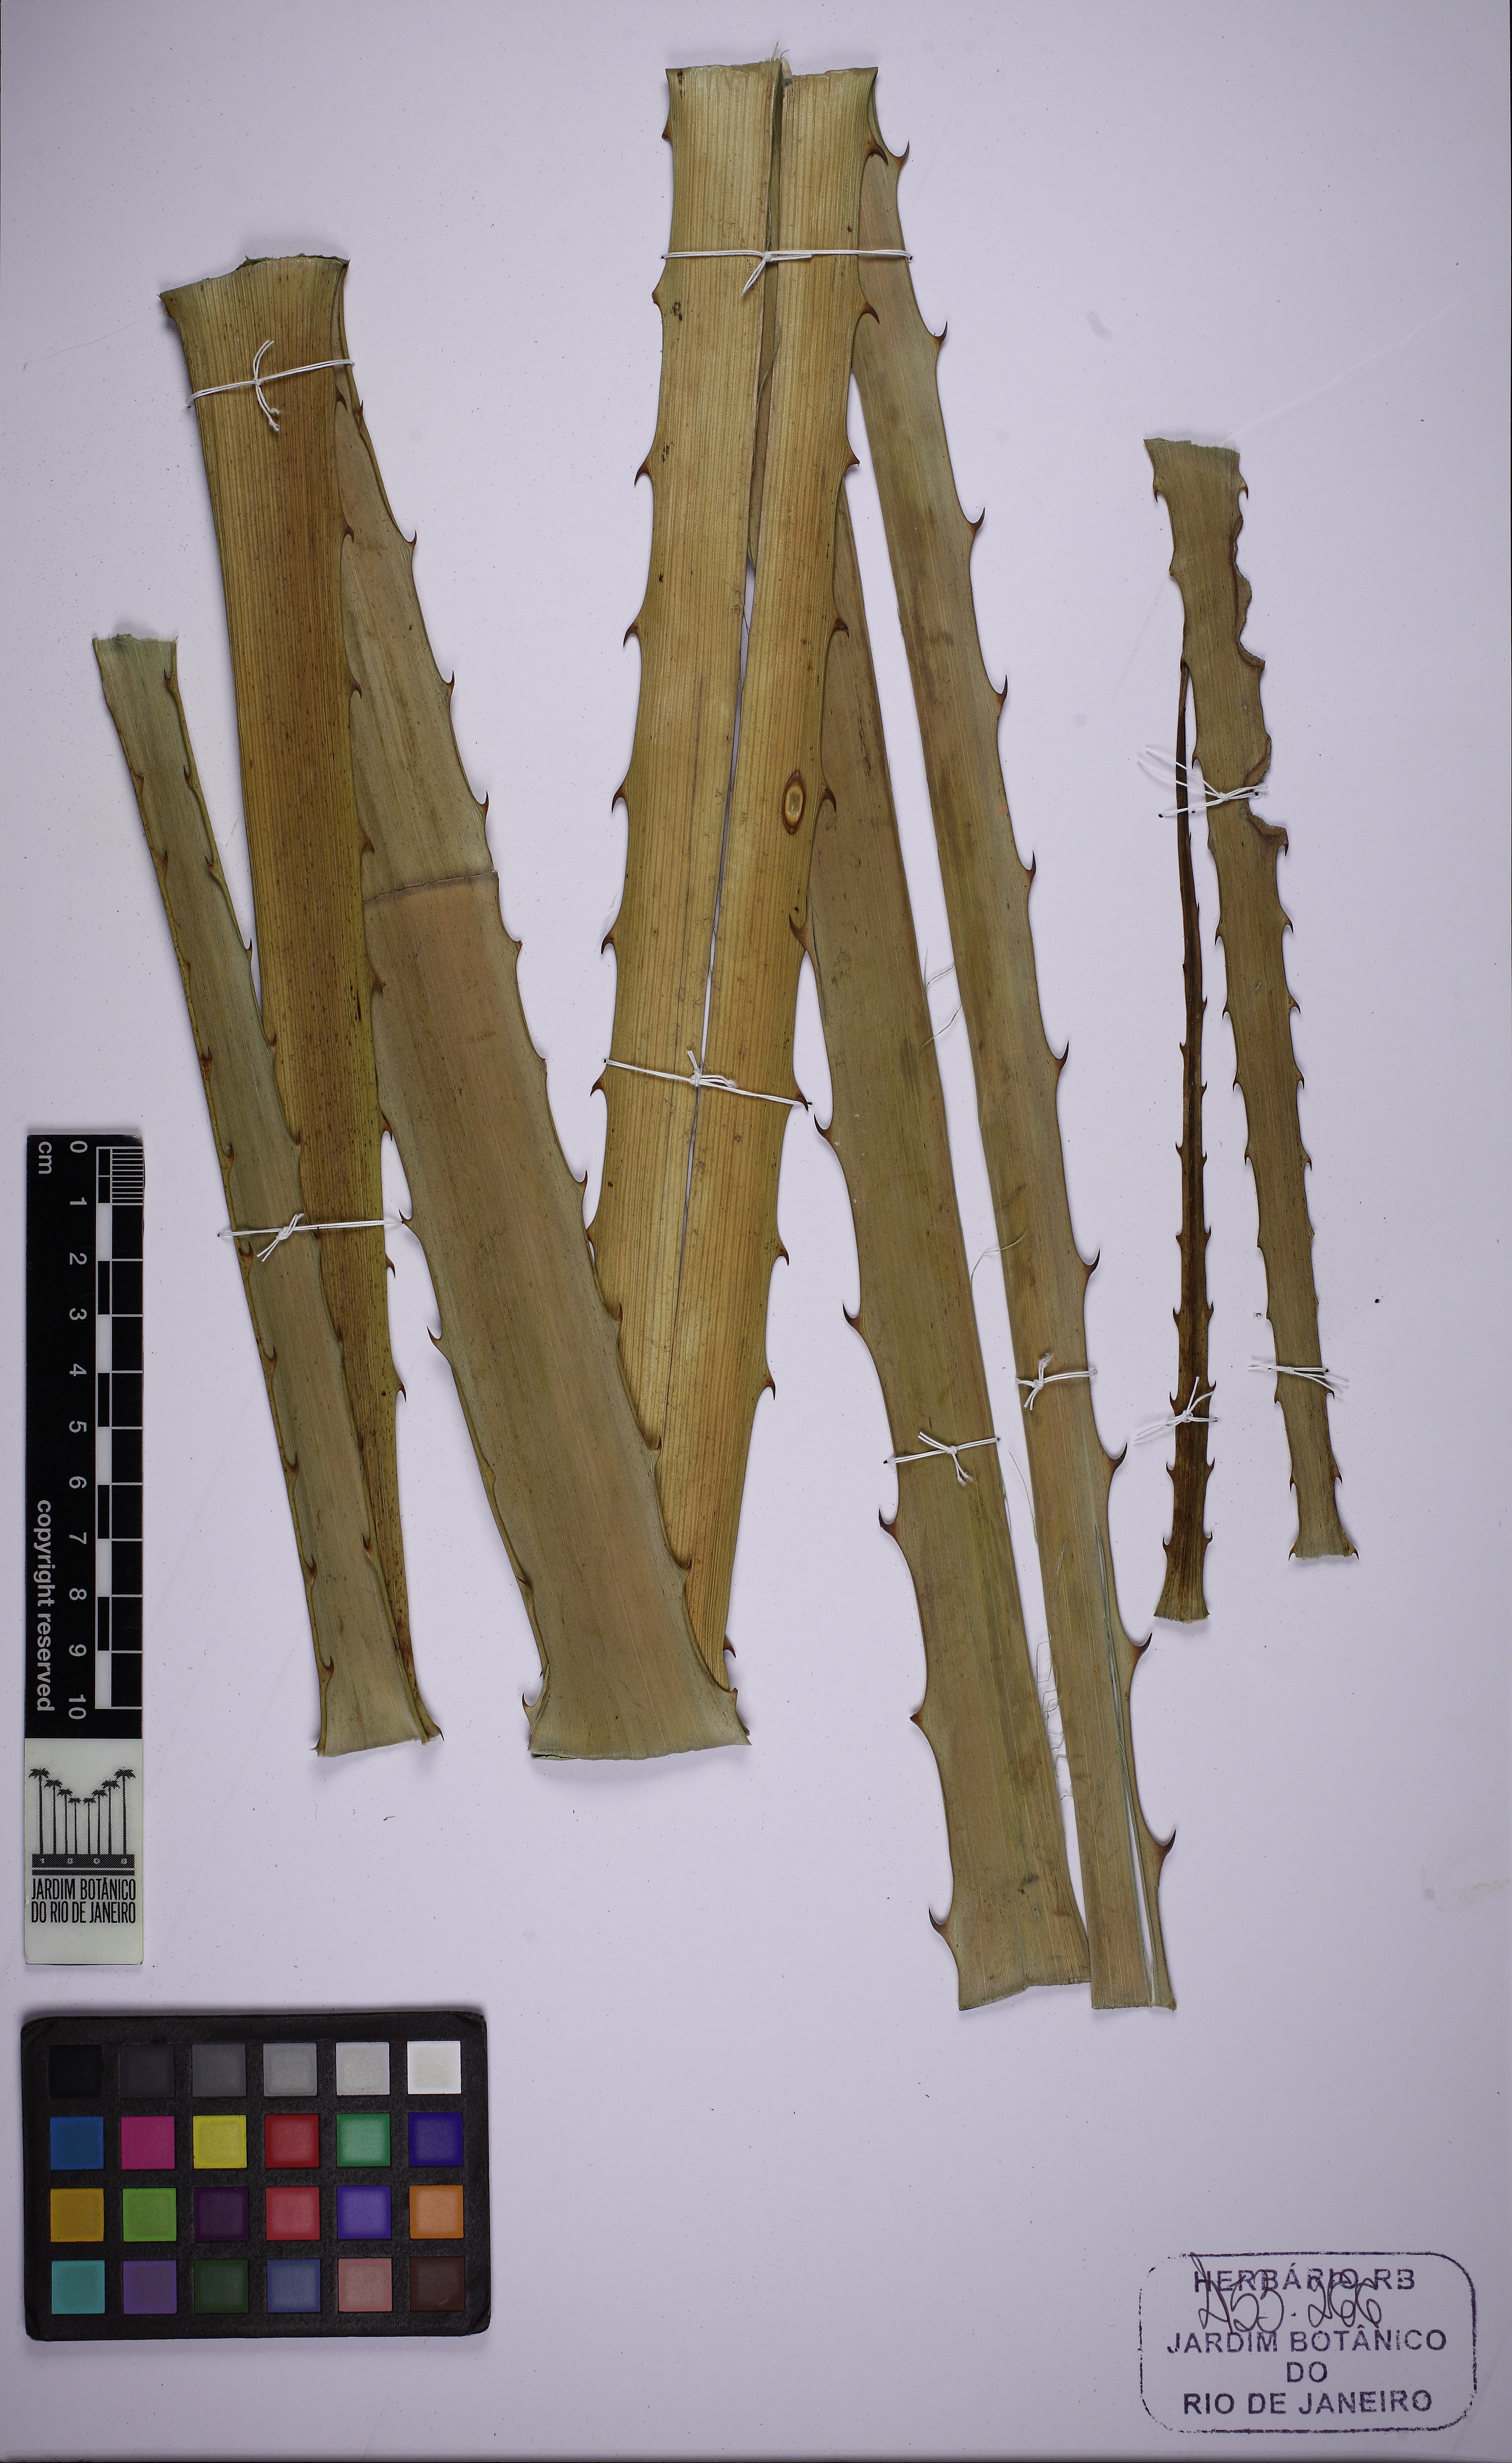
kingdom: Plantae
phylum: Tracheophyta
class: Liliopsida
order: Poales
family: Bromeliaceae
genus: Bromelia
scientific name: Bromelia antiacantha
